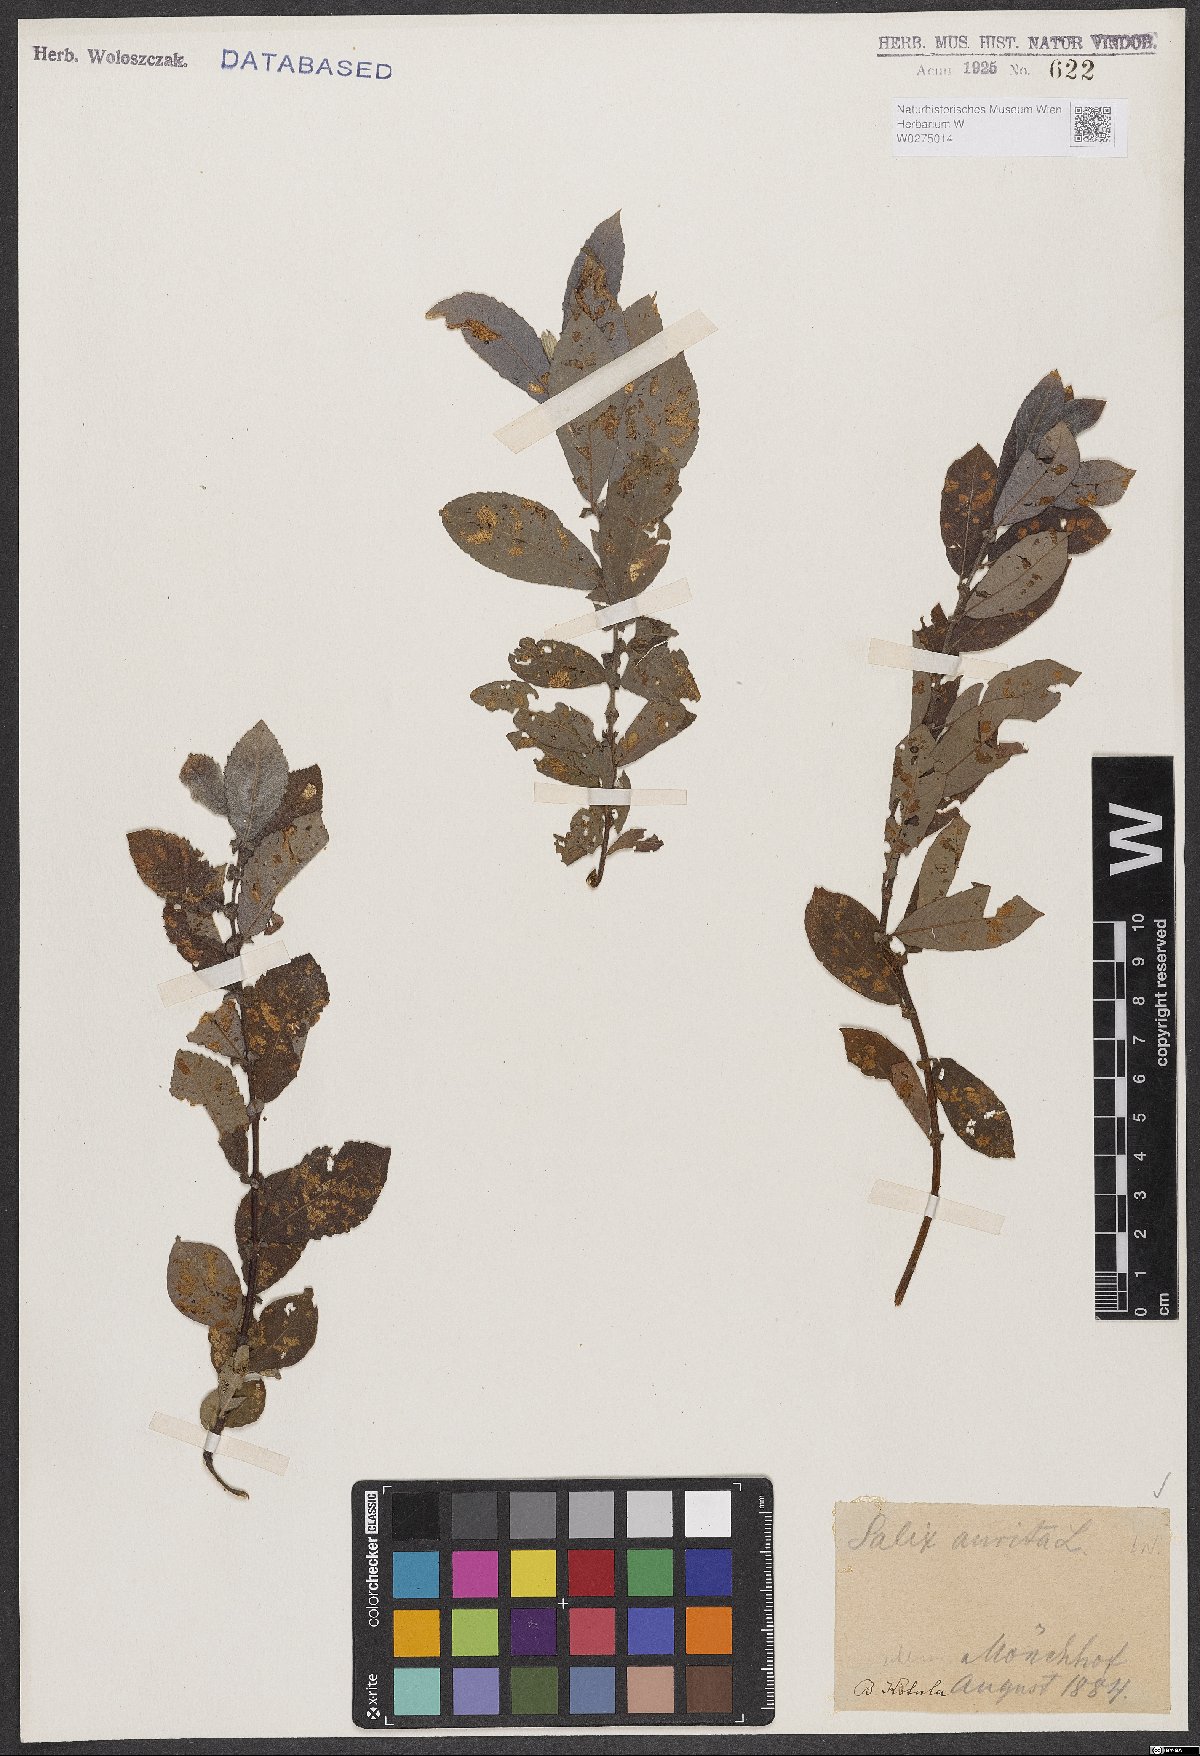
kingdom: Plantae
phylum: Tracheophyta
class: Magnoliopsida
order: Malpighiales
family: Salicaceae
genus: Salix
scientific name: Salix aurita
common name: Eared willow
